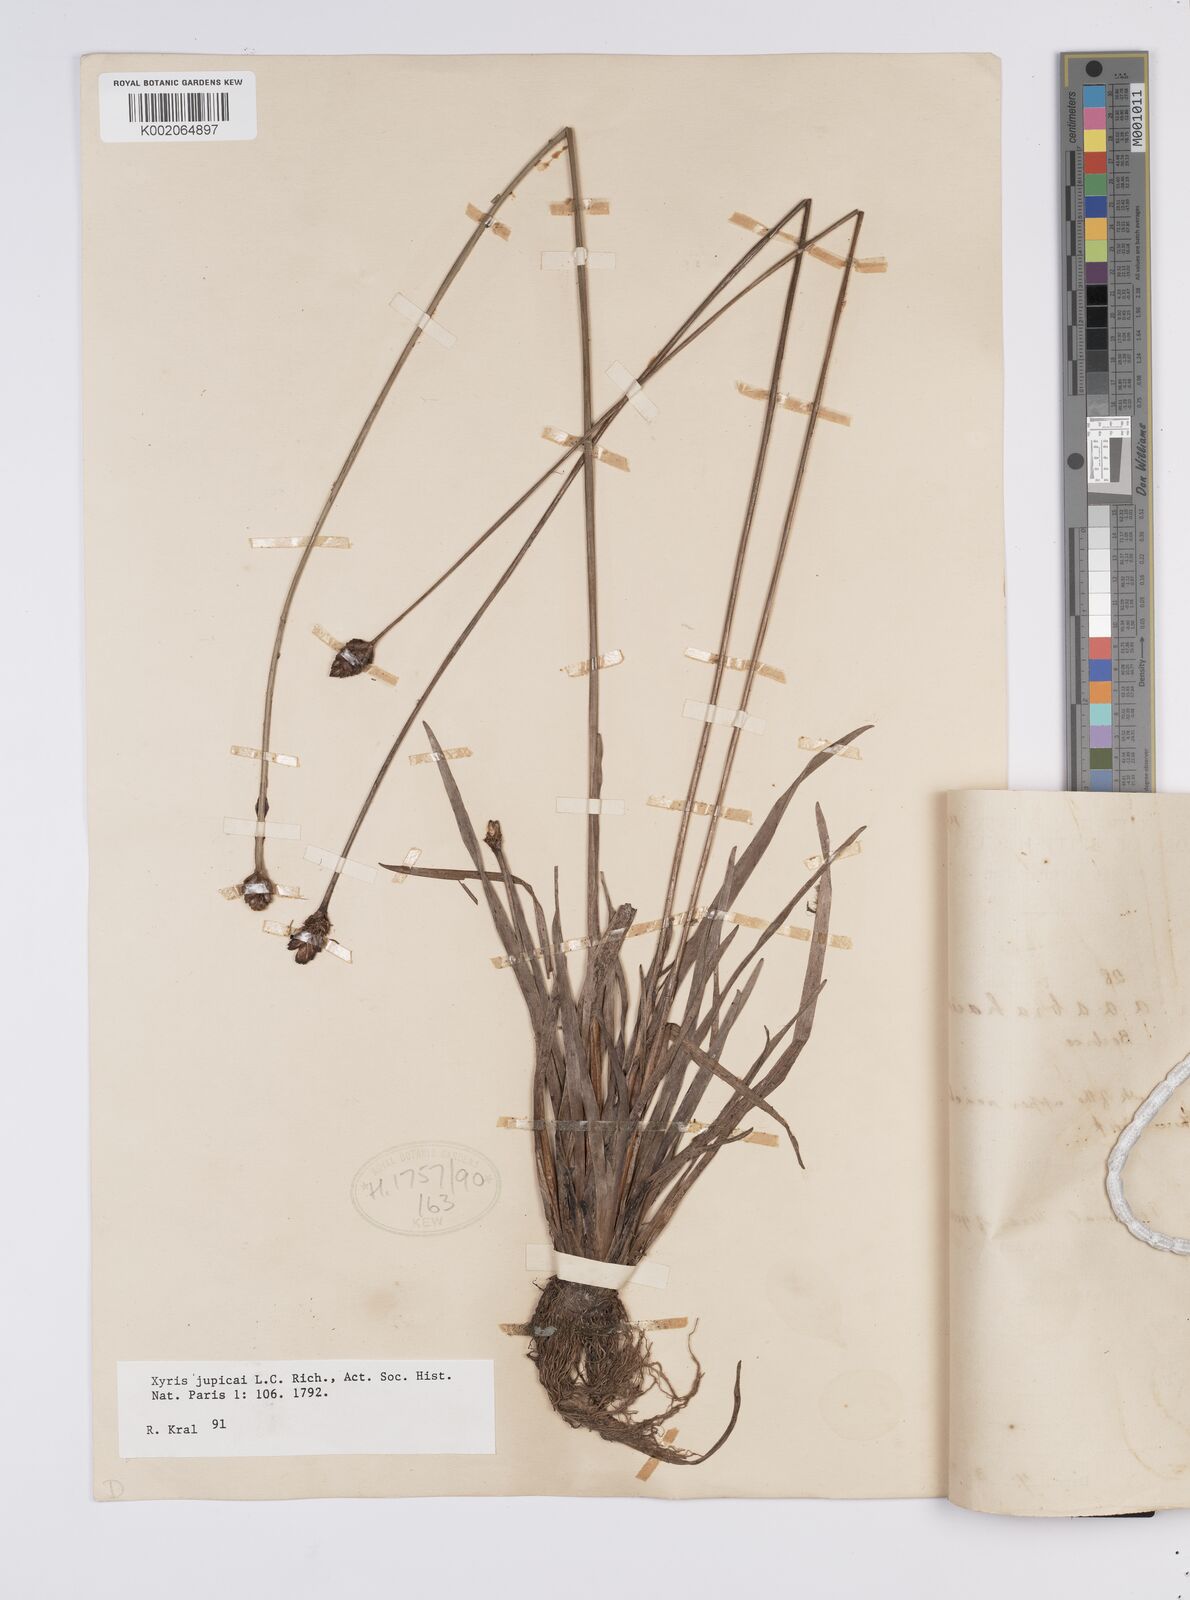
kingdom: Plantae
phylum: Tracheophyta
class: Liliopsida
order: Poales
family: Xyridaceae
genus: Xyris
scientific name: Xyris jupicai
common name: Richard's yelloweyed grass
